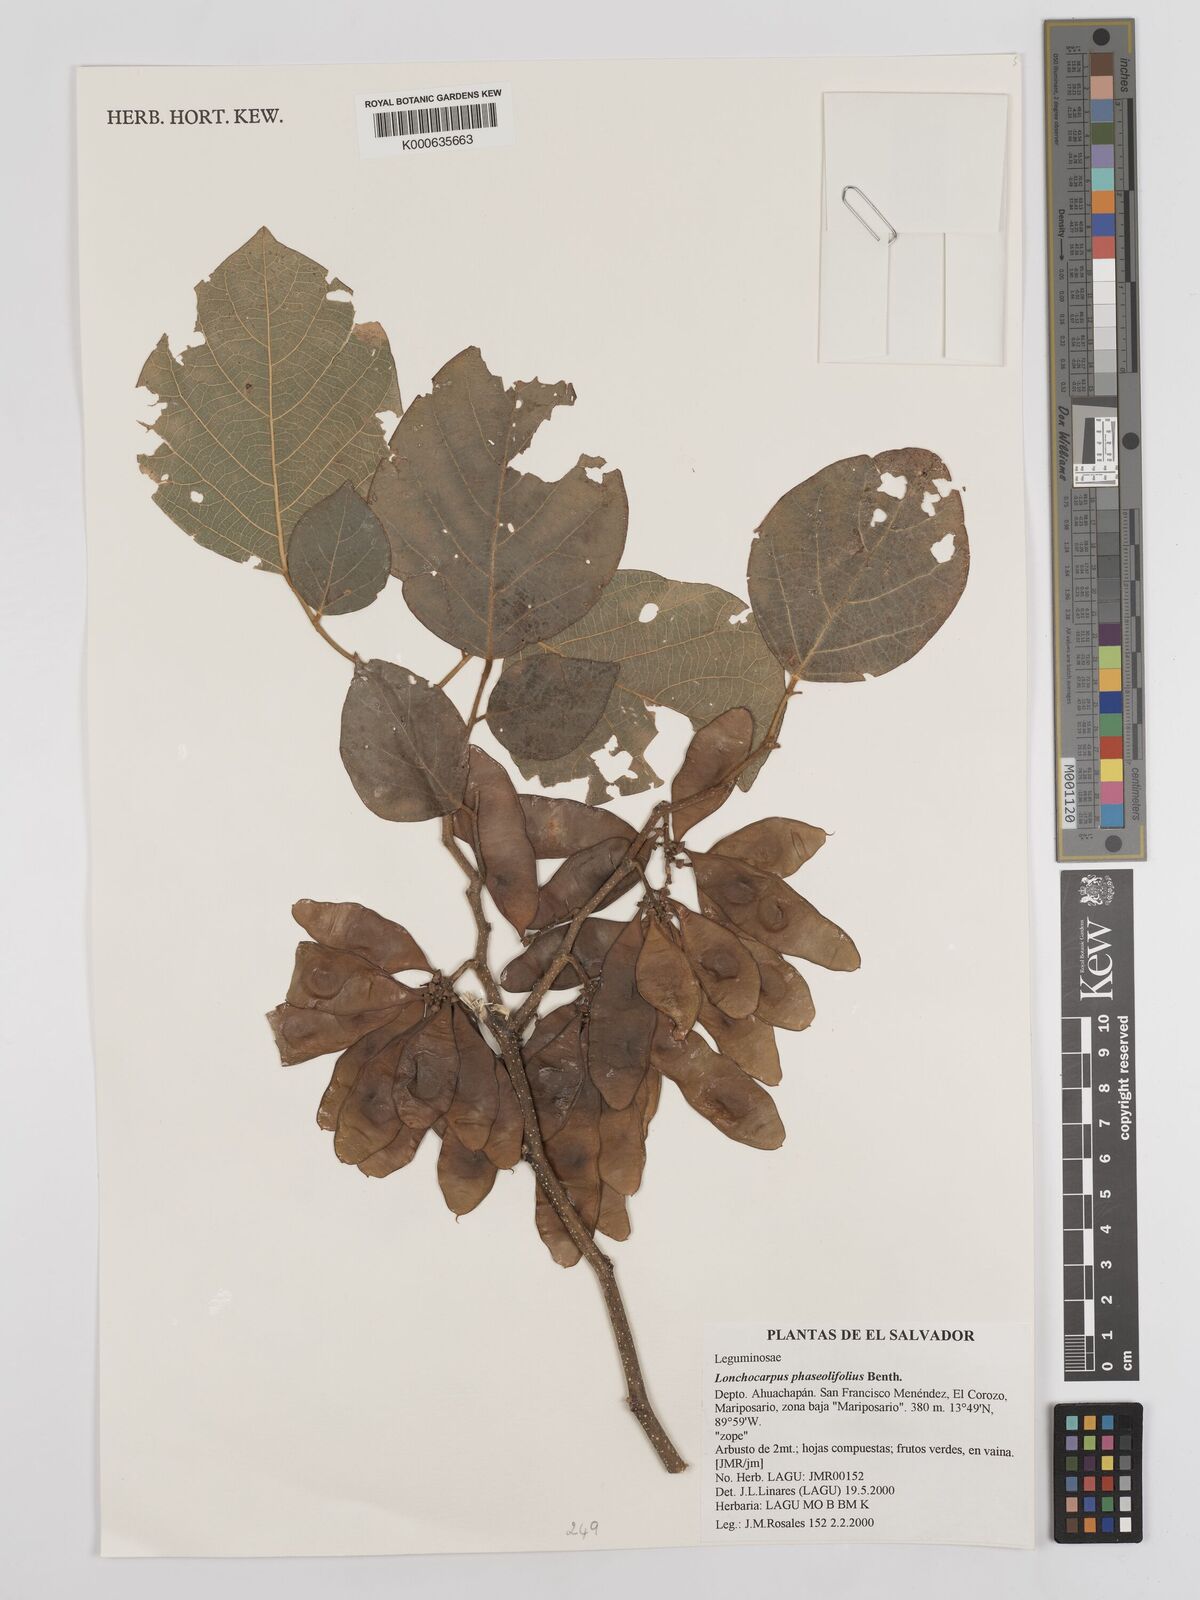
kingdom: Plantae
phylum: Tracheophyta
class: Magnoliopsida
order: Fabales
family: Fabaceae
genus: Lonchocarpus
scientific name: Lonchocarpus phaseolifolius
